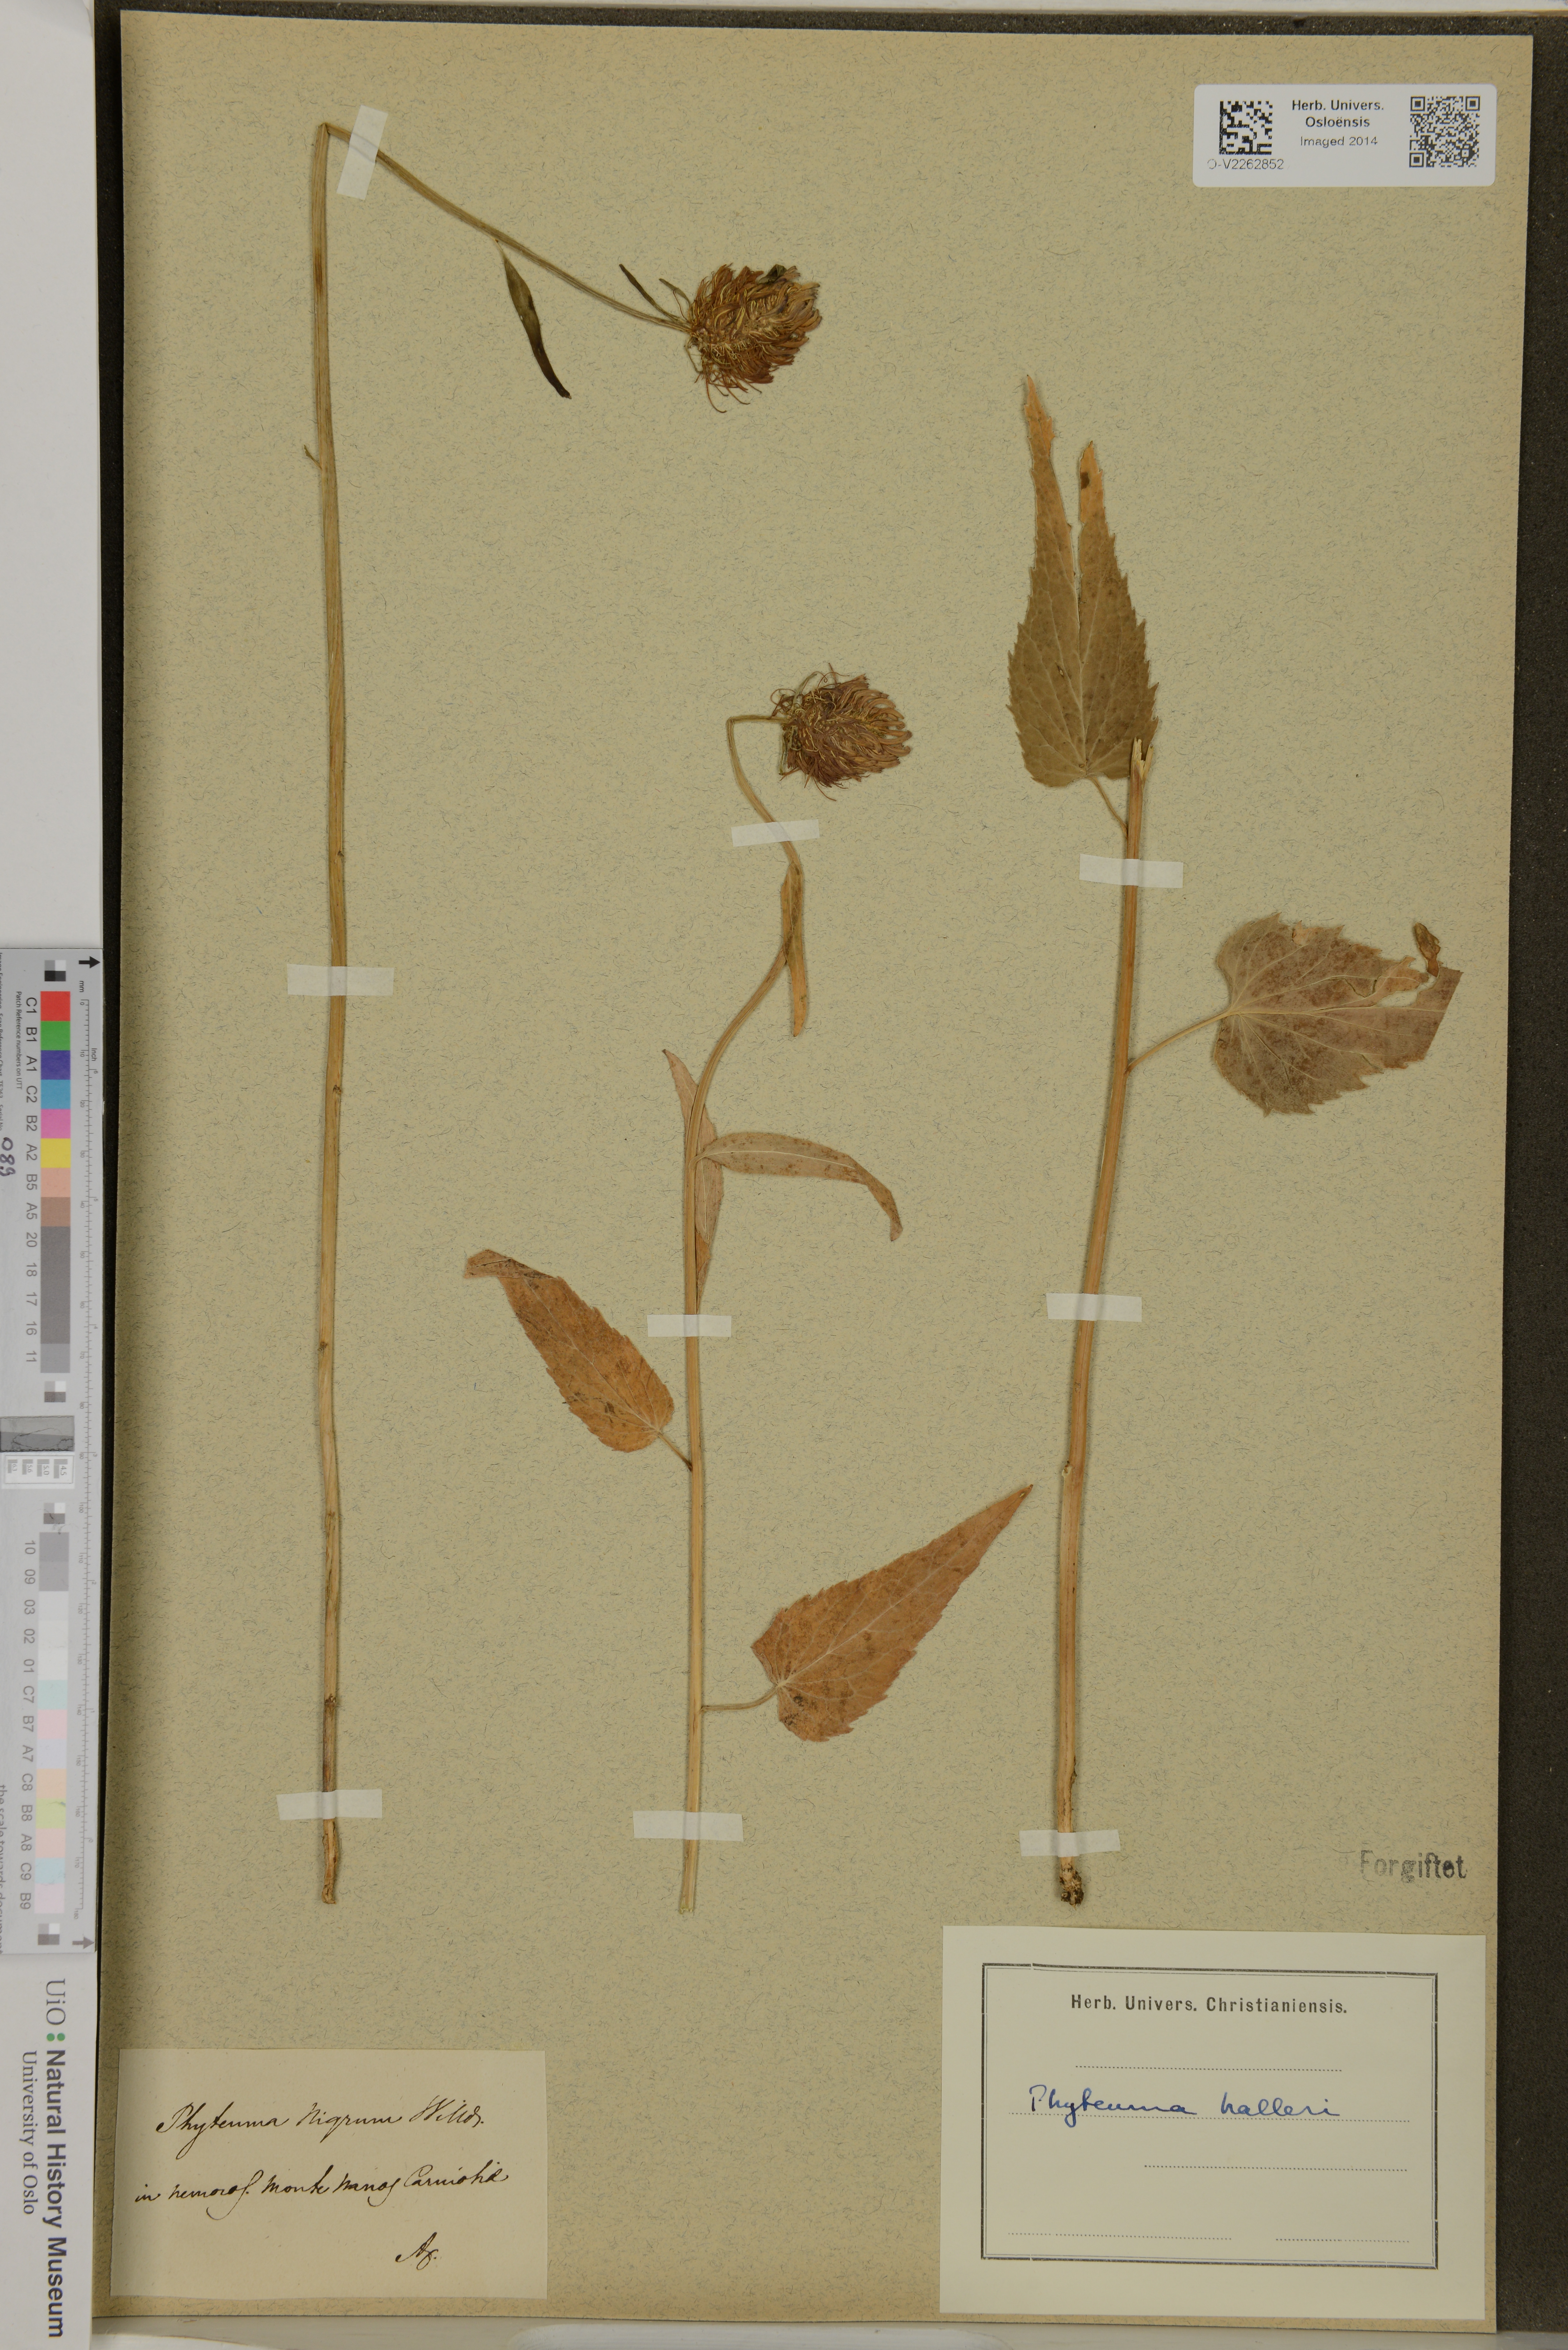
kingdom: Plantae
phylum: Tracheophyta
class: Magnoliopsida
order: Asterales
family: Campanulaceae
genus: Phyteuma
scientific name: Phyteuma halleri
